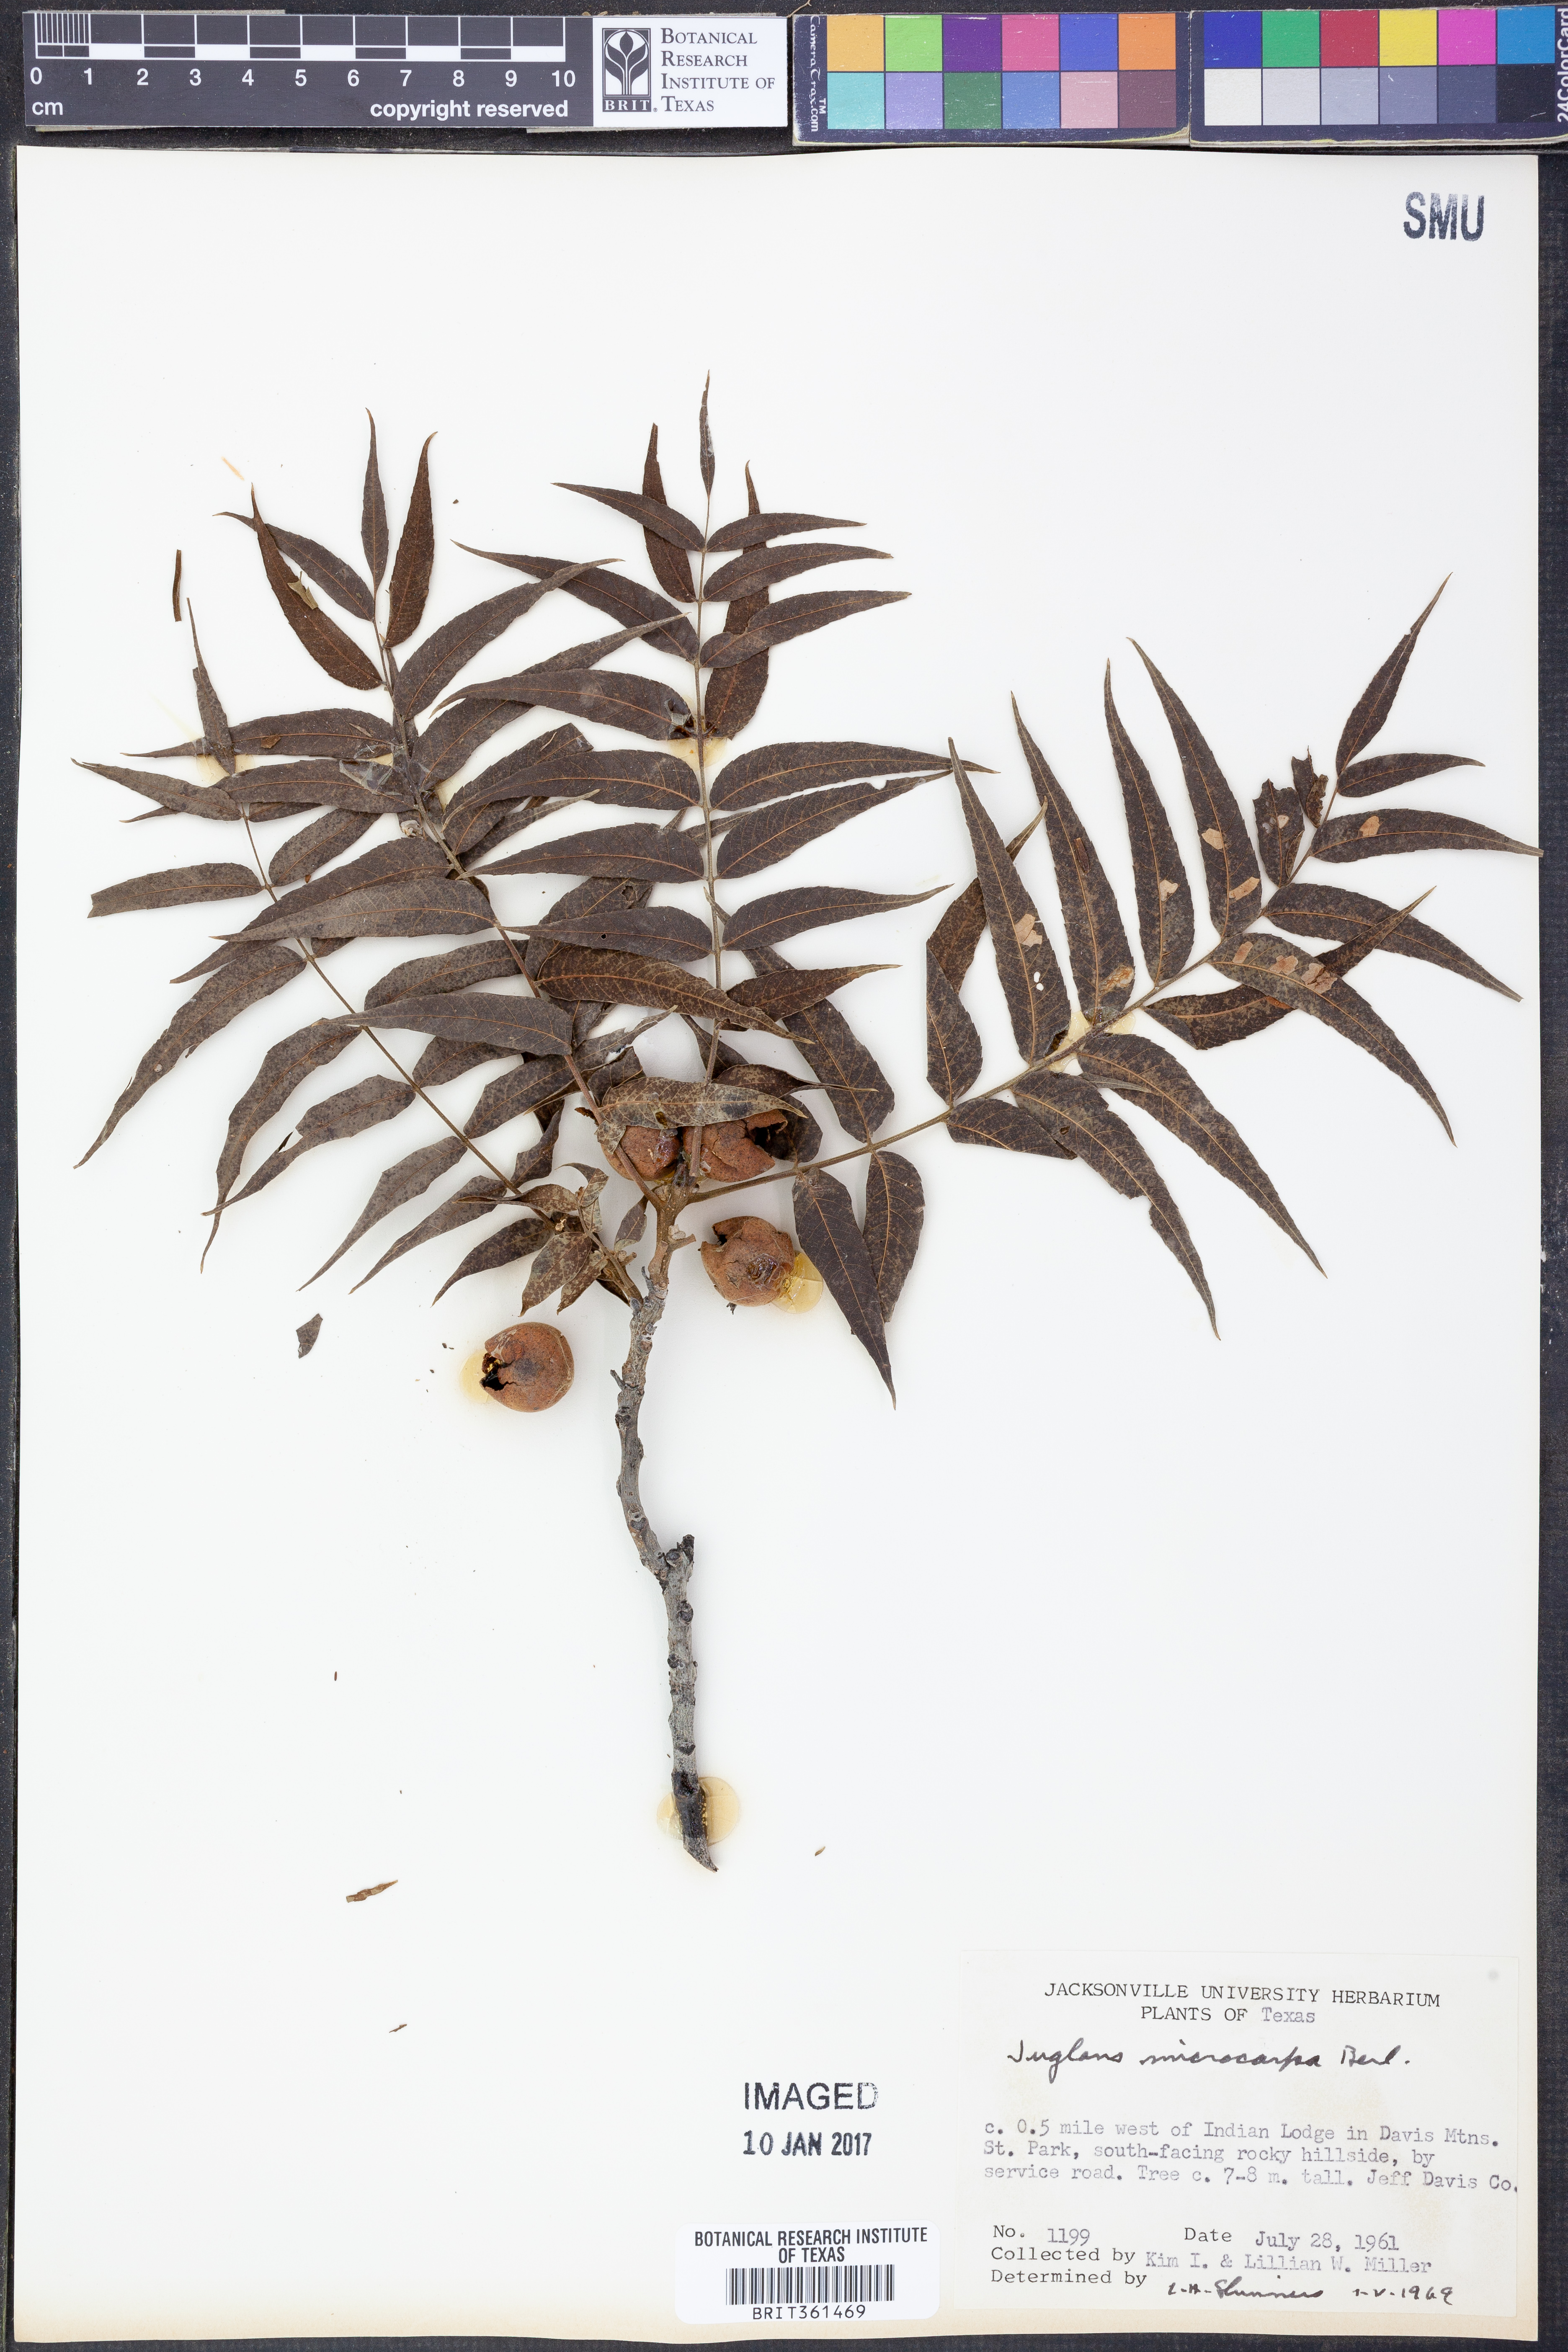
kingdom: Plantae
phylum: Tracheophyta
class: Magnoliopsida
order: Fagales
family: Juglandaceae
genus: Juglans
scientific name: Juglans microcarpa
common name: Texas walnut
